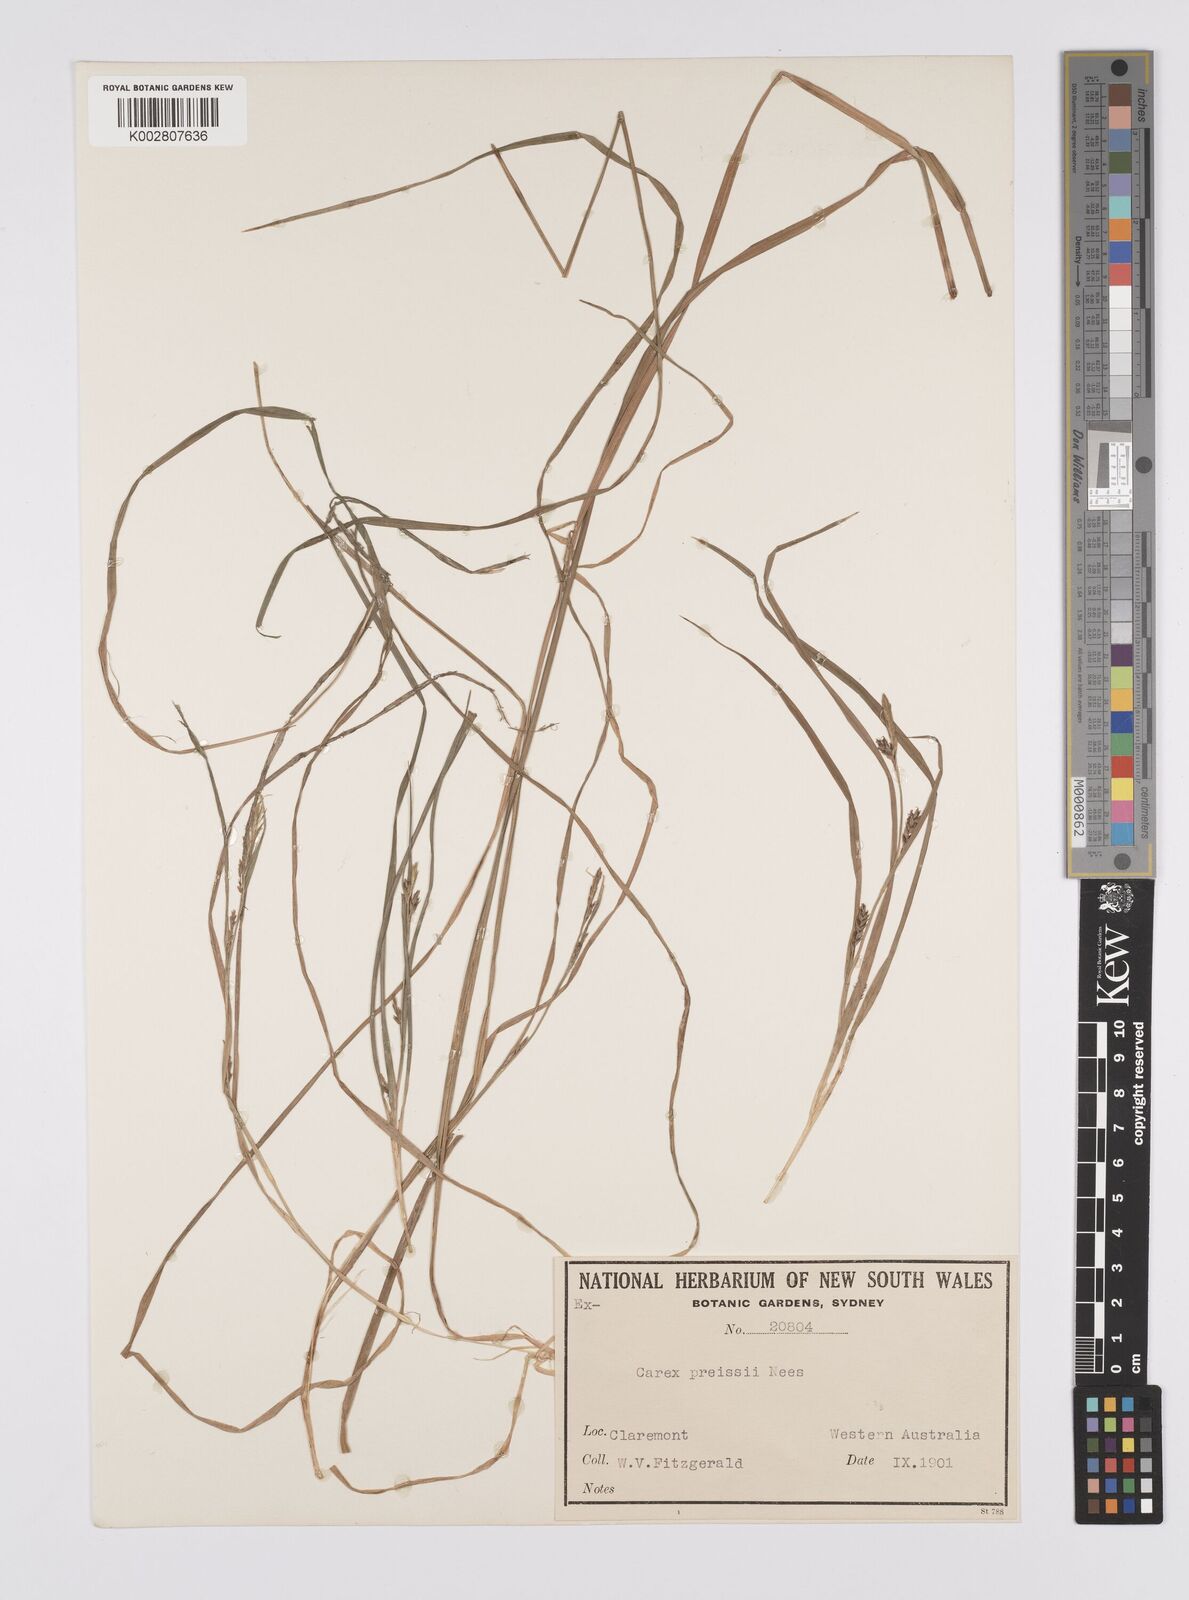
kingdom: Plantae
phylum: Tracheophyta
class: Liliopsida
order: Poales
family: Cyperaceae
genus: Carex
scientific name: Carex preissii
